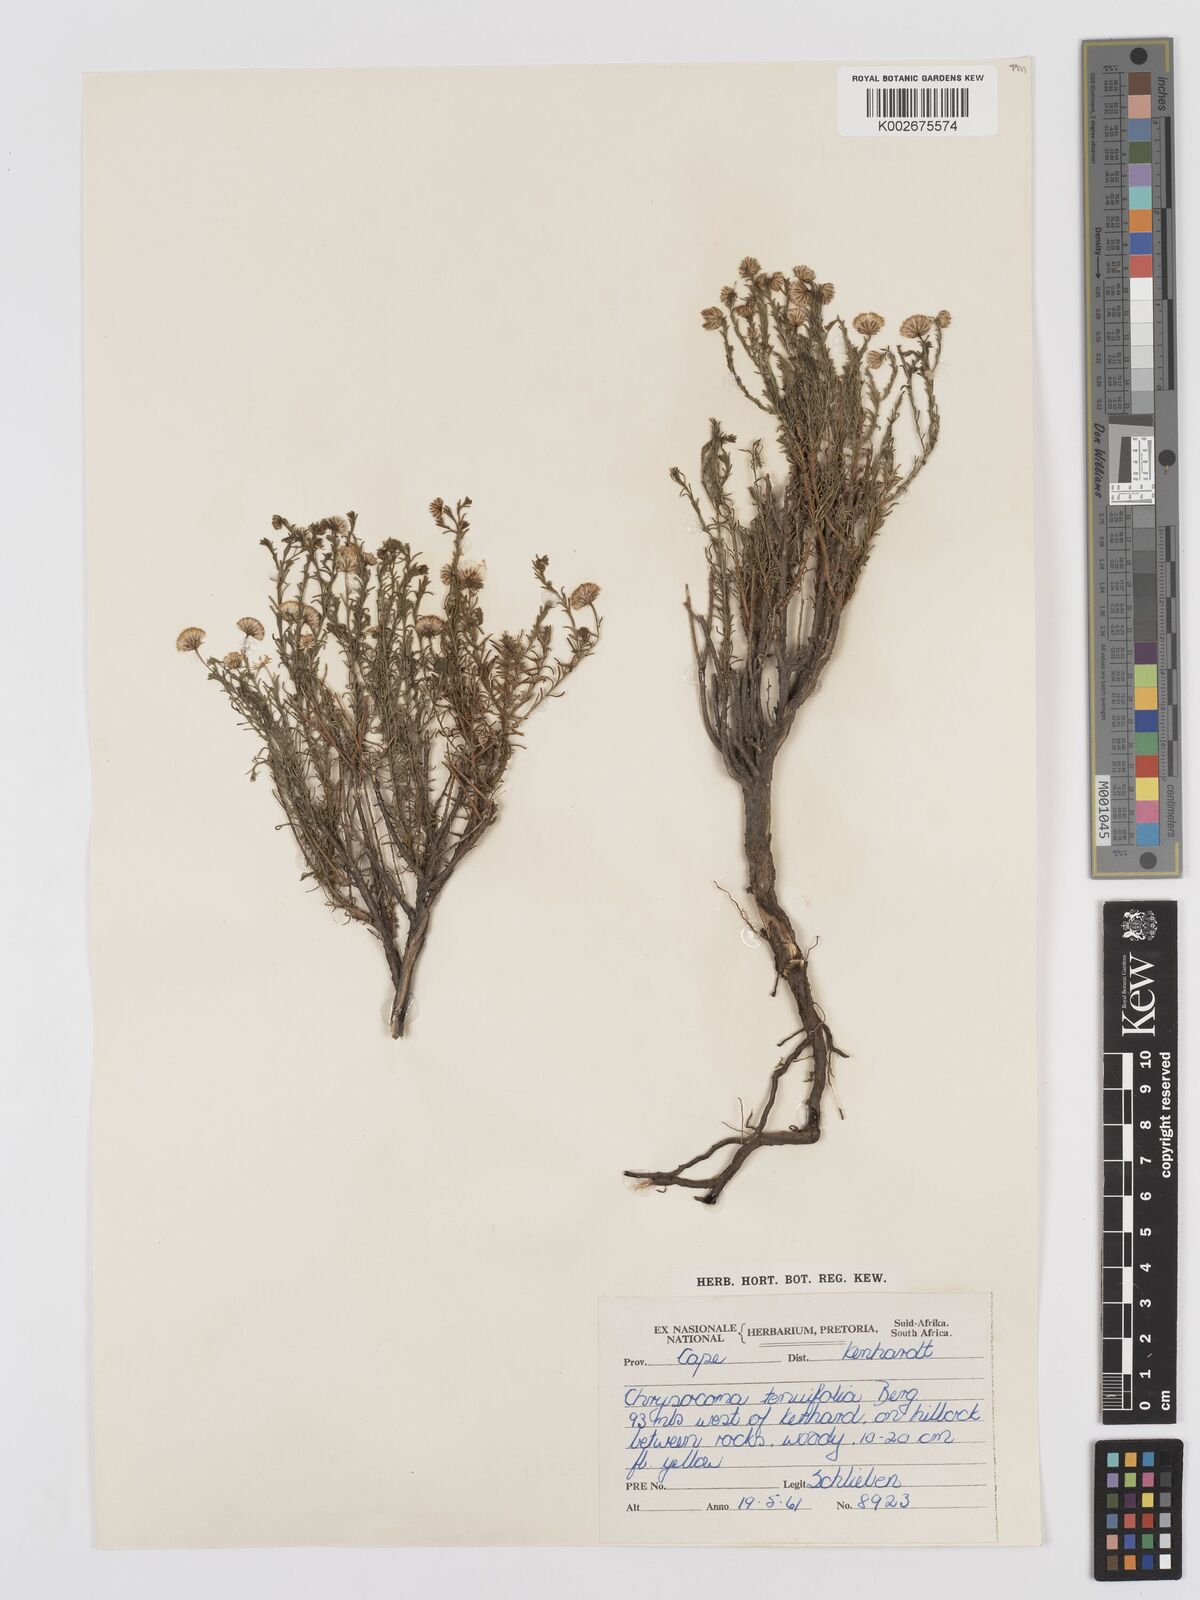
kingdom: Plantae
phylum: Tracheophyta
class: Magnoliopsida
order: Asterales
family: Asteraceae
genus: Chrysocoma
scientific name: Chrysocoma ciliata
